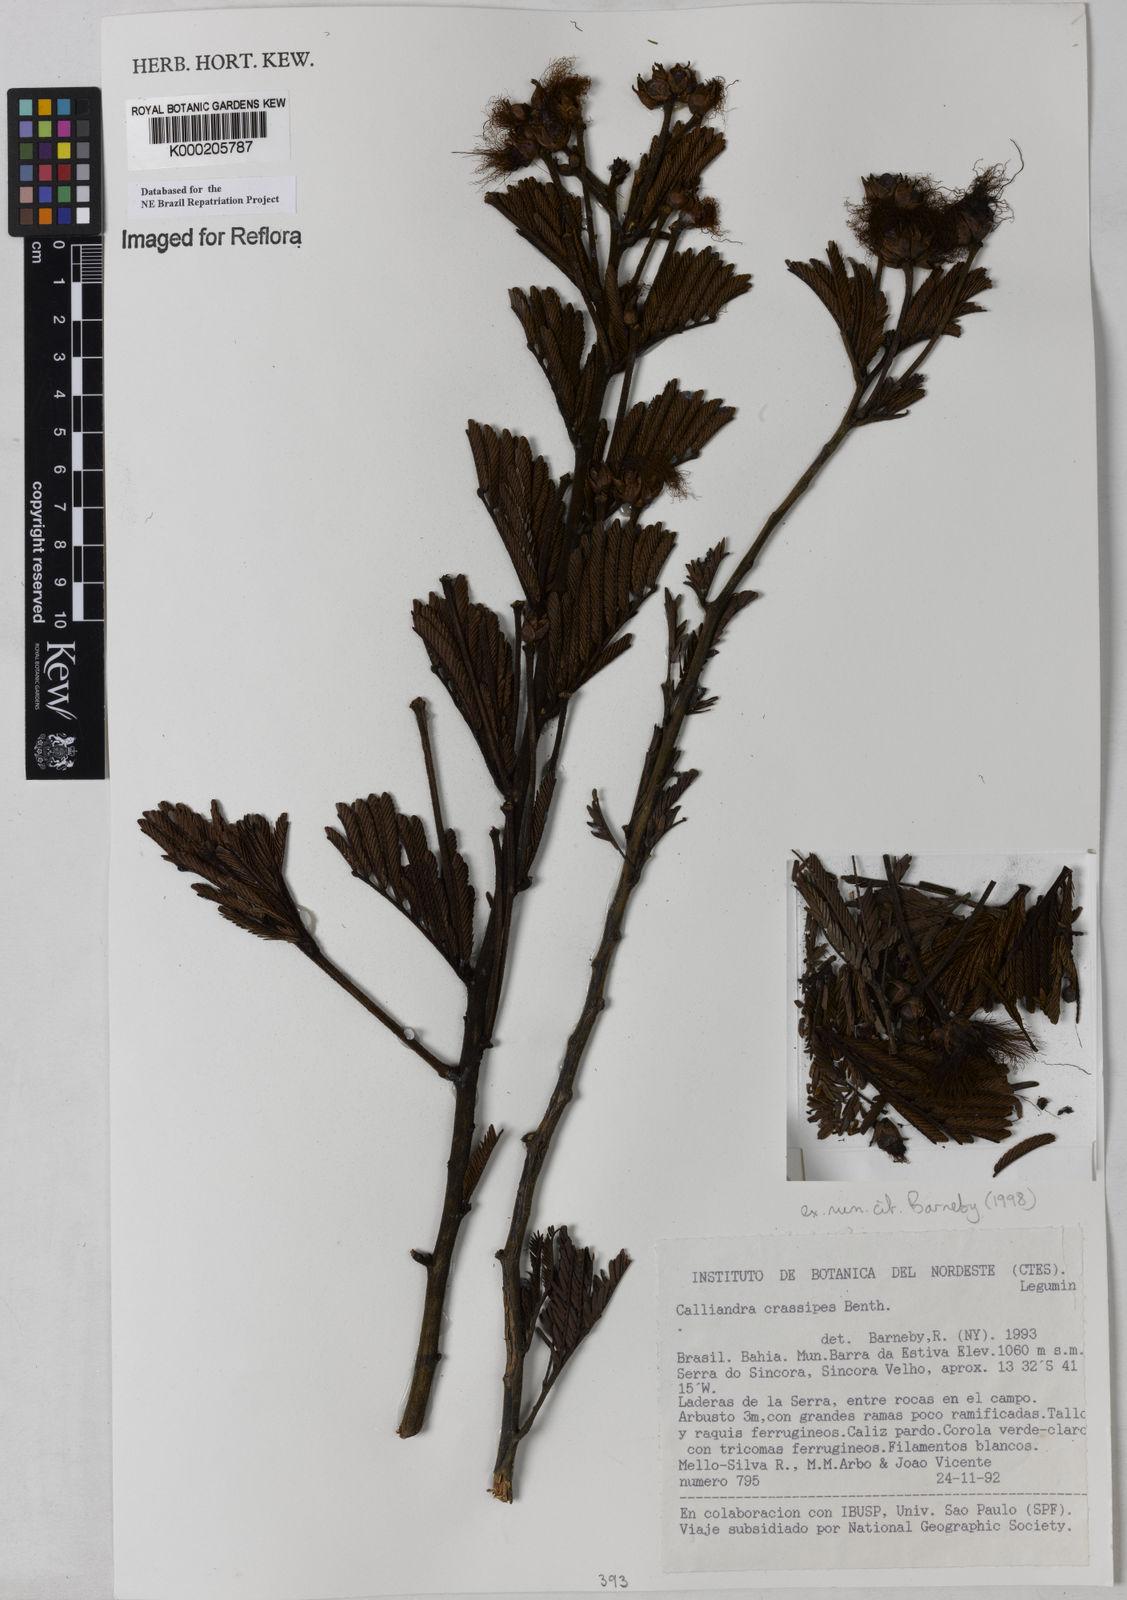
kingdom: Plantae
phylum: Tracheophyta
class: Magnoliopsida
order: Fabales
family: Fabaceae
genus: Calliandra
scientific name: Calliandra crassipes
